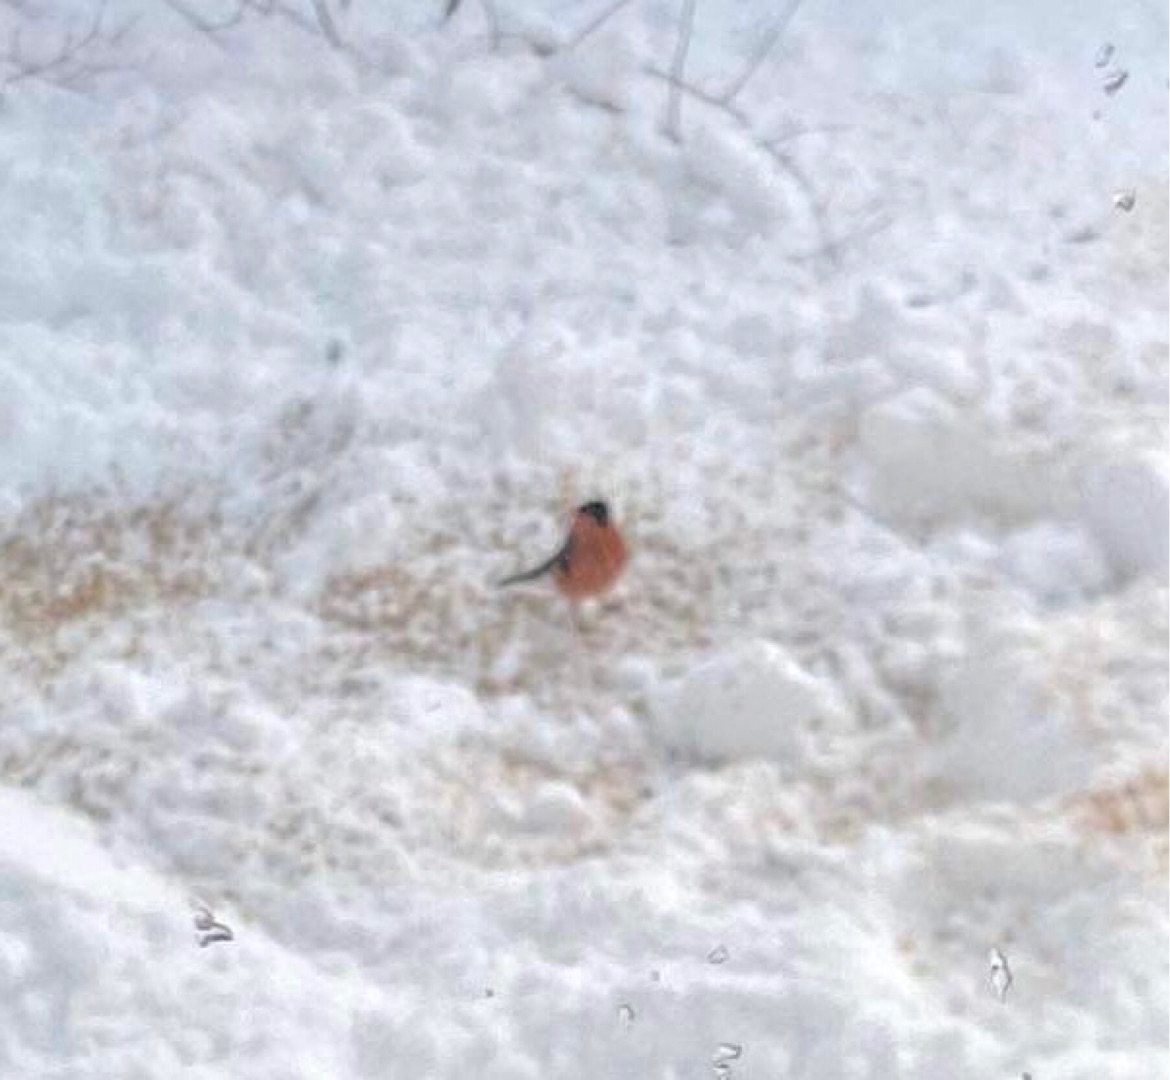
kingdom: Animalia
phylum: Chordata
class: Aves
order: Passeriformes
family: Fringillidae
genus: Pyrrhula
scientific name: Pyrrhula pyrrhula
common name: Dompap
